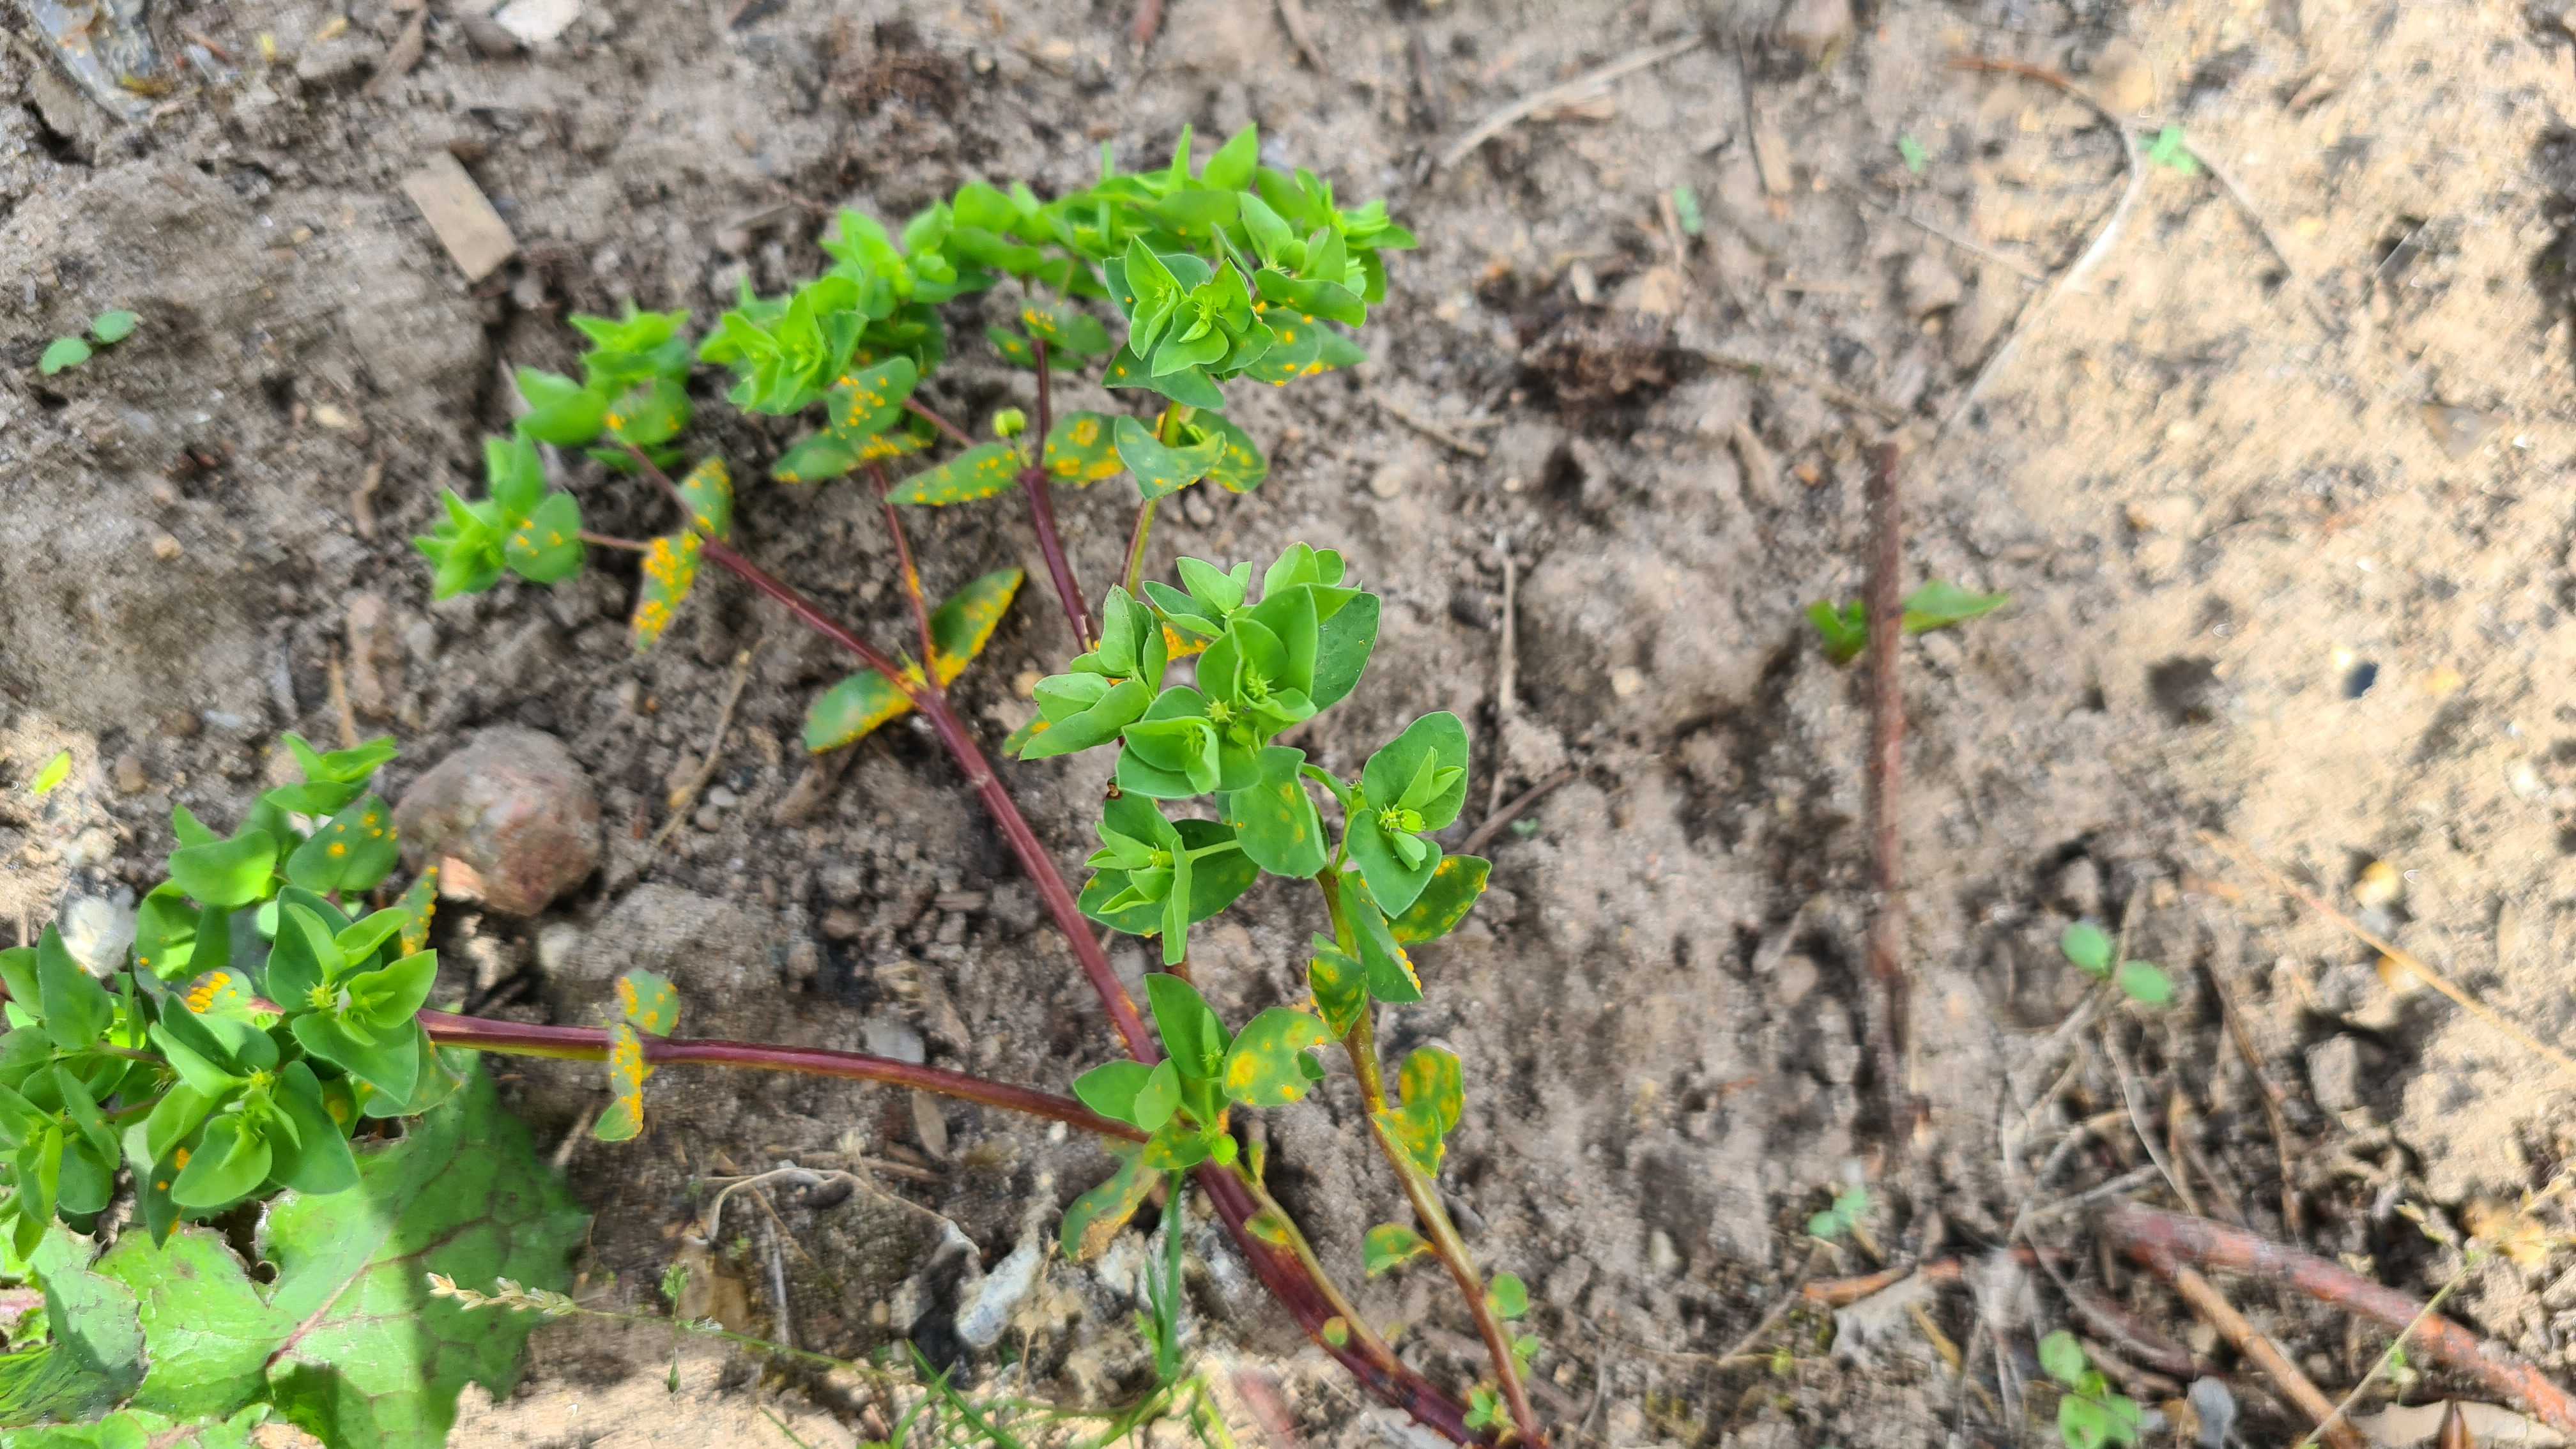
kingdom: Fungi
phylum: Basidiomycota
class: Pucciniomycetes
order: Pucciniales
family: Melampsoraceae
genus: Melampsora
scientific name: Melampsora euphorbiae
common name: vortemælk-skorperust
